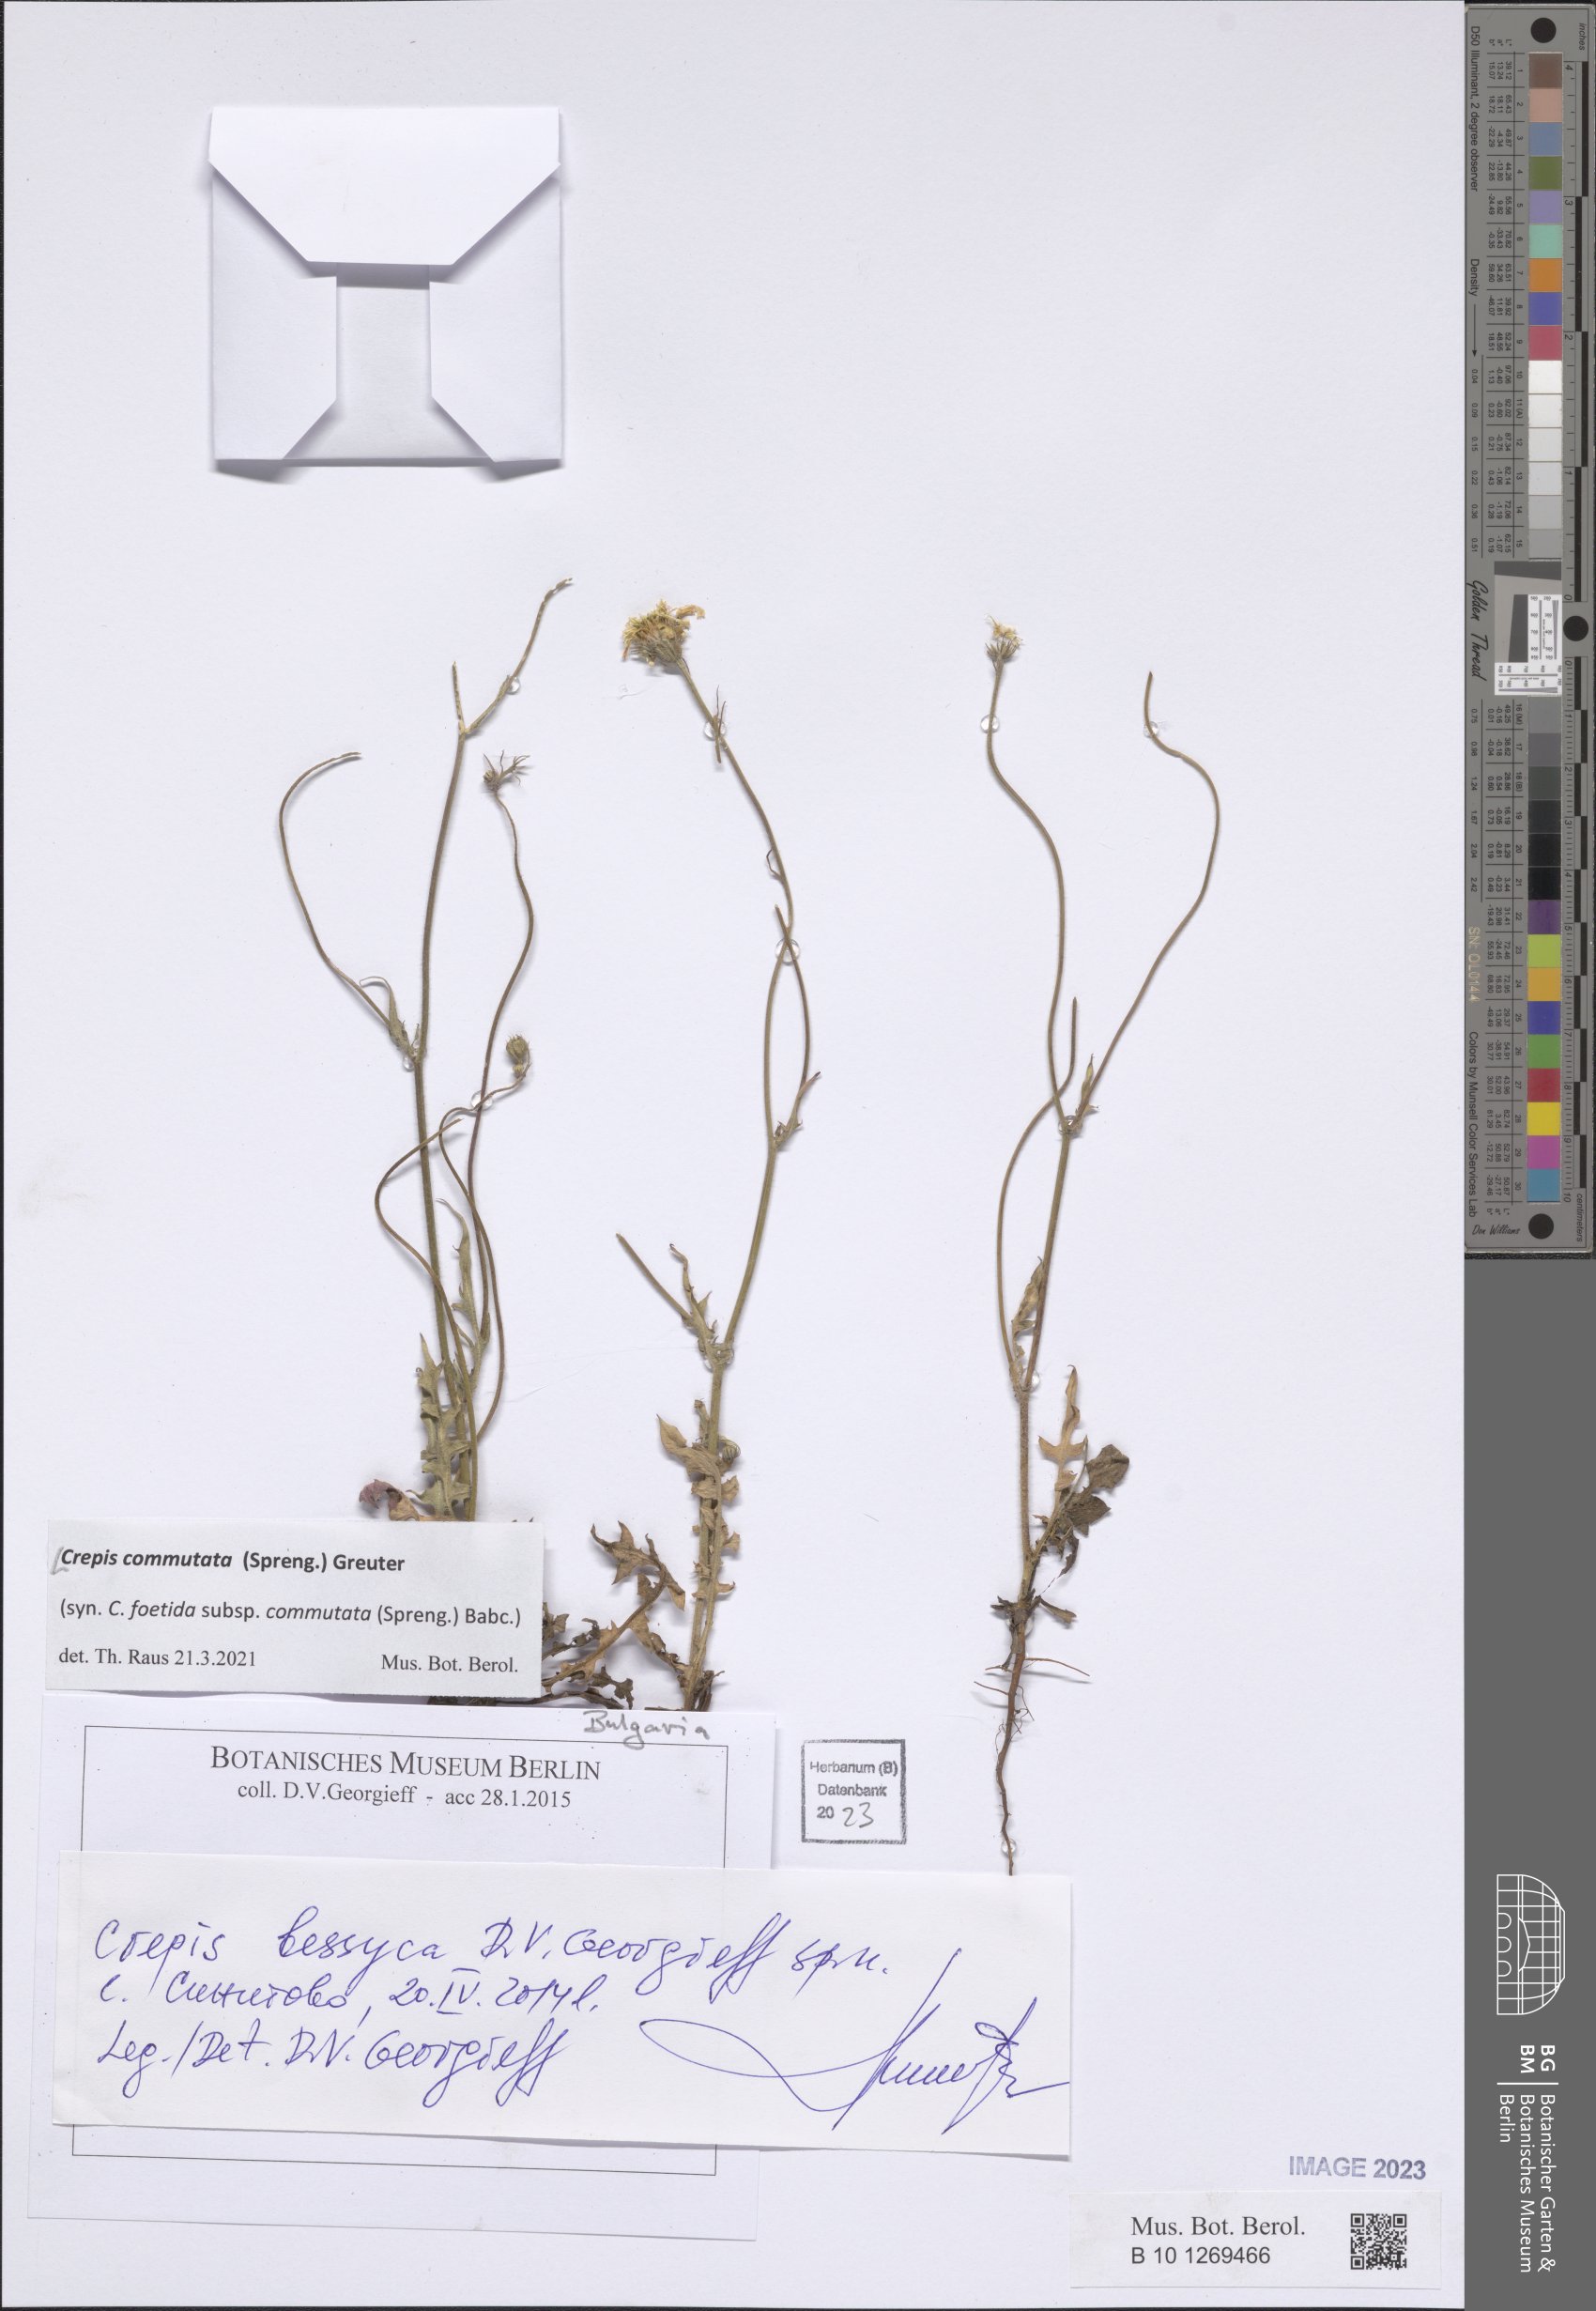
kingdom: Plantae
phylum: Tracheophyta
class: Magnoliopsida
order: Asterales
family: Asteraceae
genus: Crepis
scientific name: Crepis commutata
